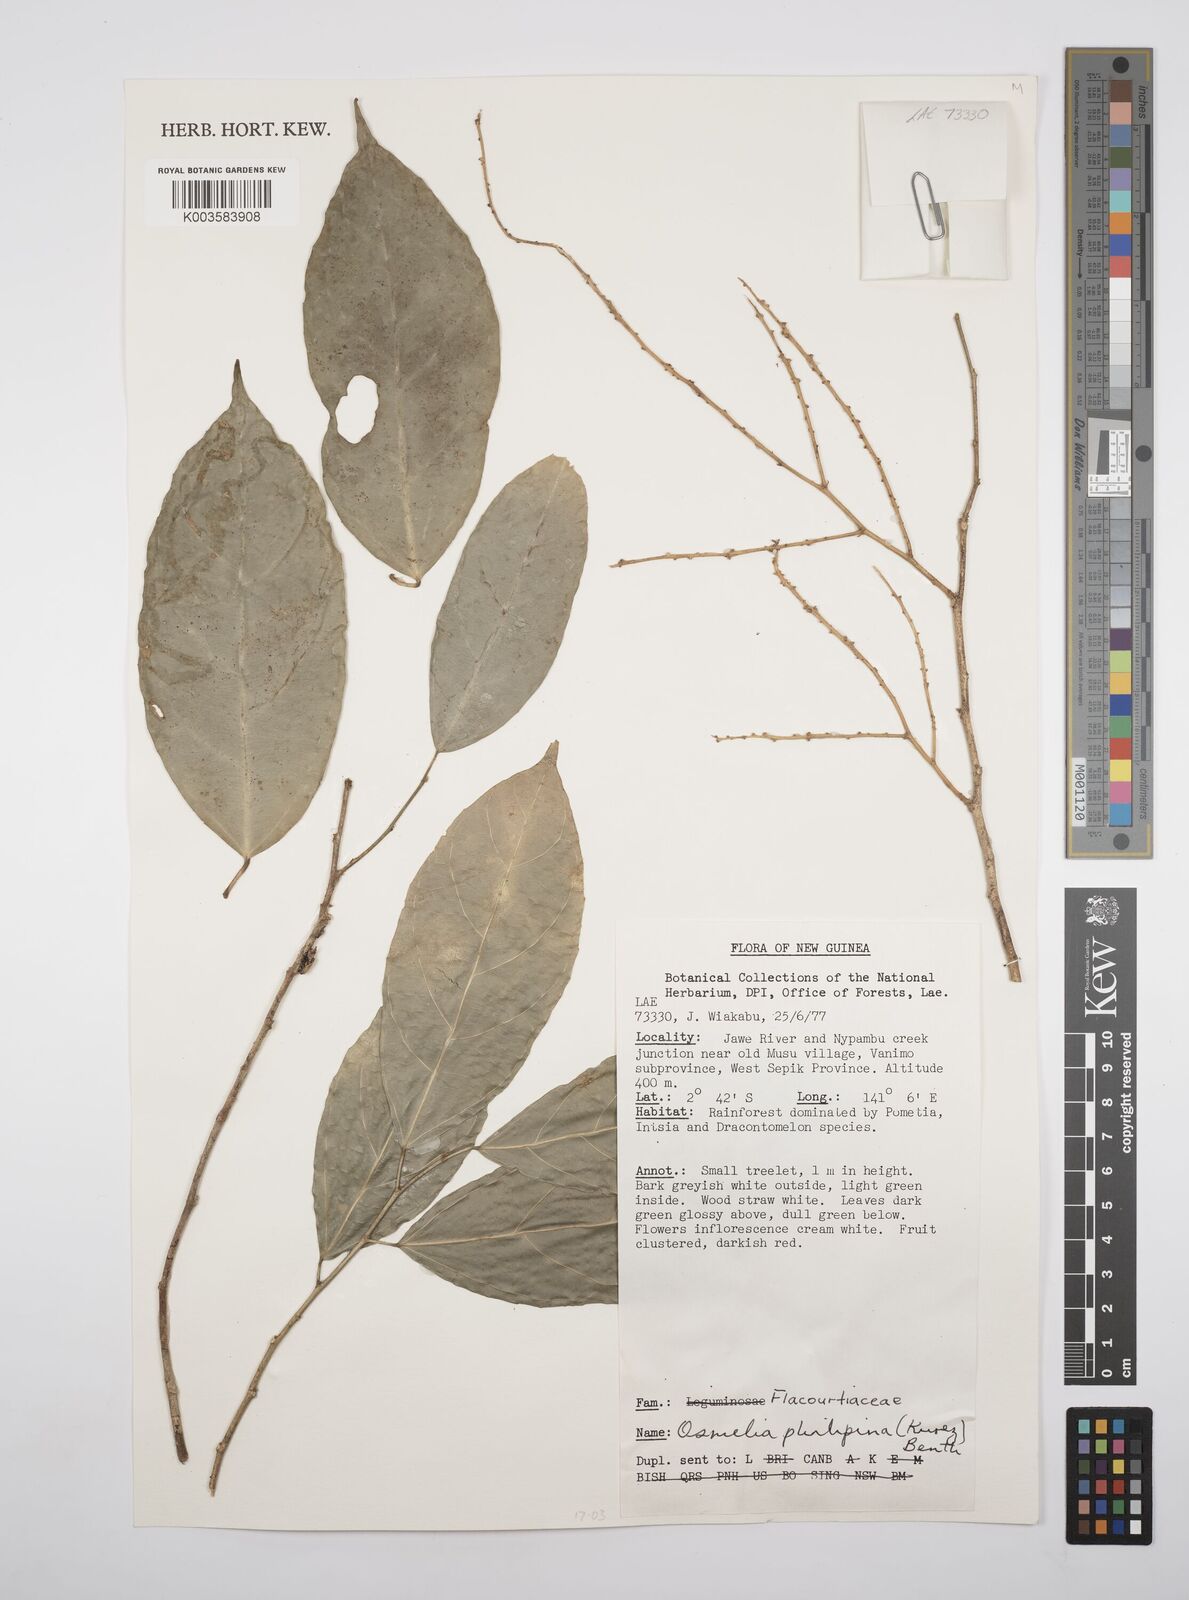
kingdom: Plantae
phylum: Tracheophyta
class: Magnoliopsida
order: Malpighiales
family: Salicaceae
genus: Osmelia
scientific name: Osmelia philippina
